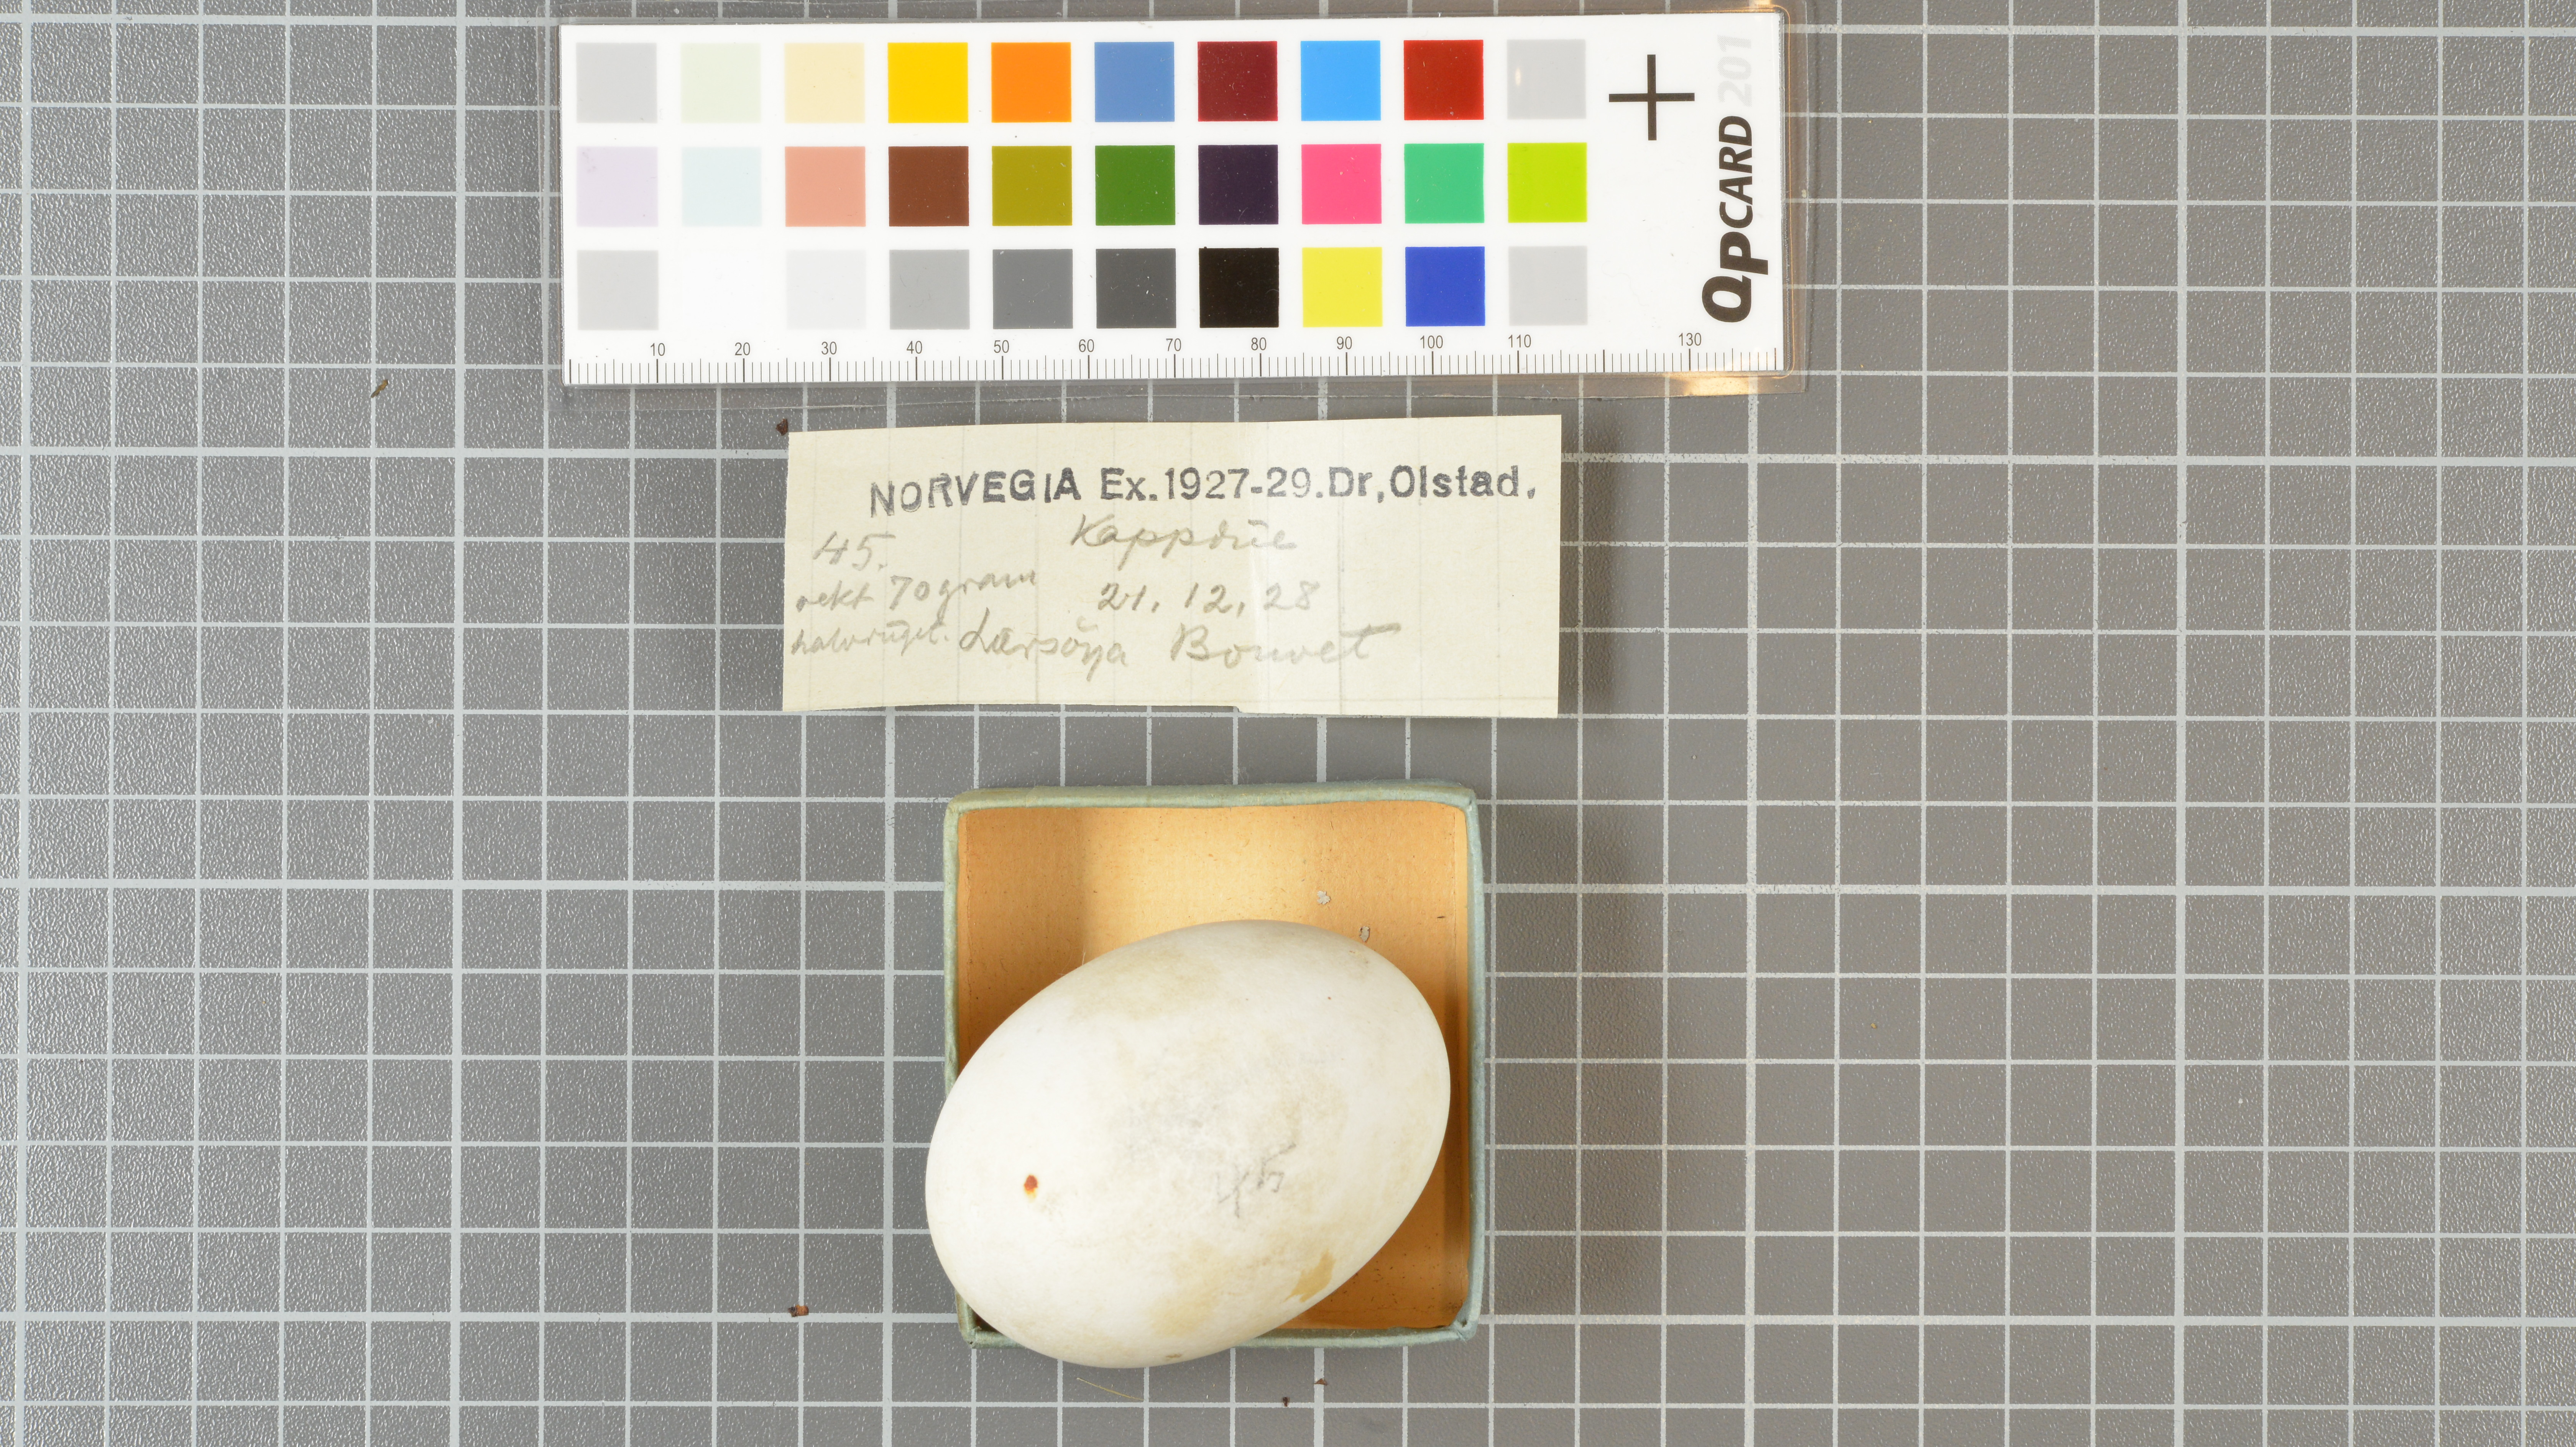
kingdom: Animalia
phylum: Chordata
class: Aves
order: Procellariiformes
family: Procellariidae
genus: Daption
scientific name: Daption capense
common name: Cape petrel
